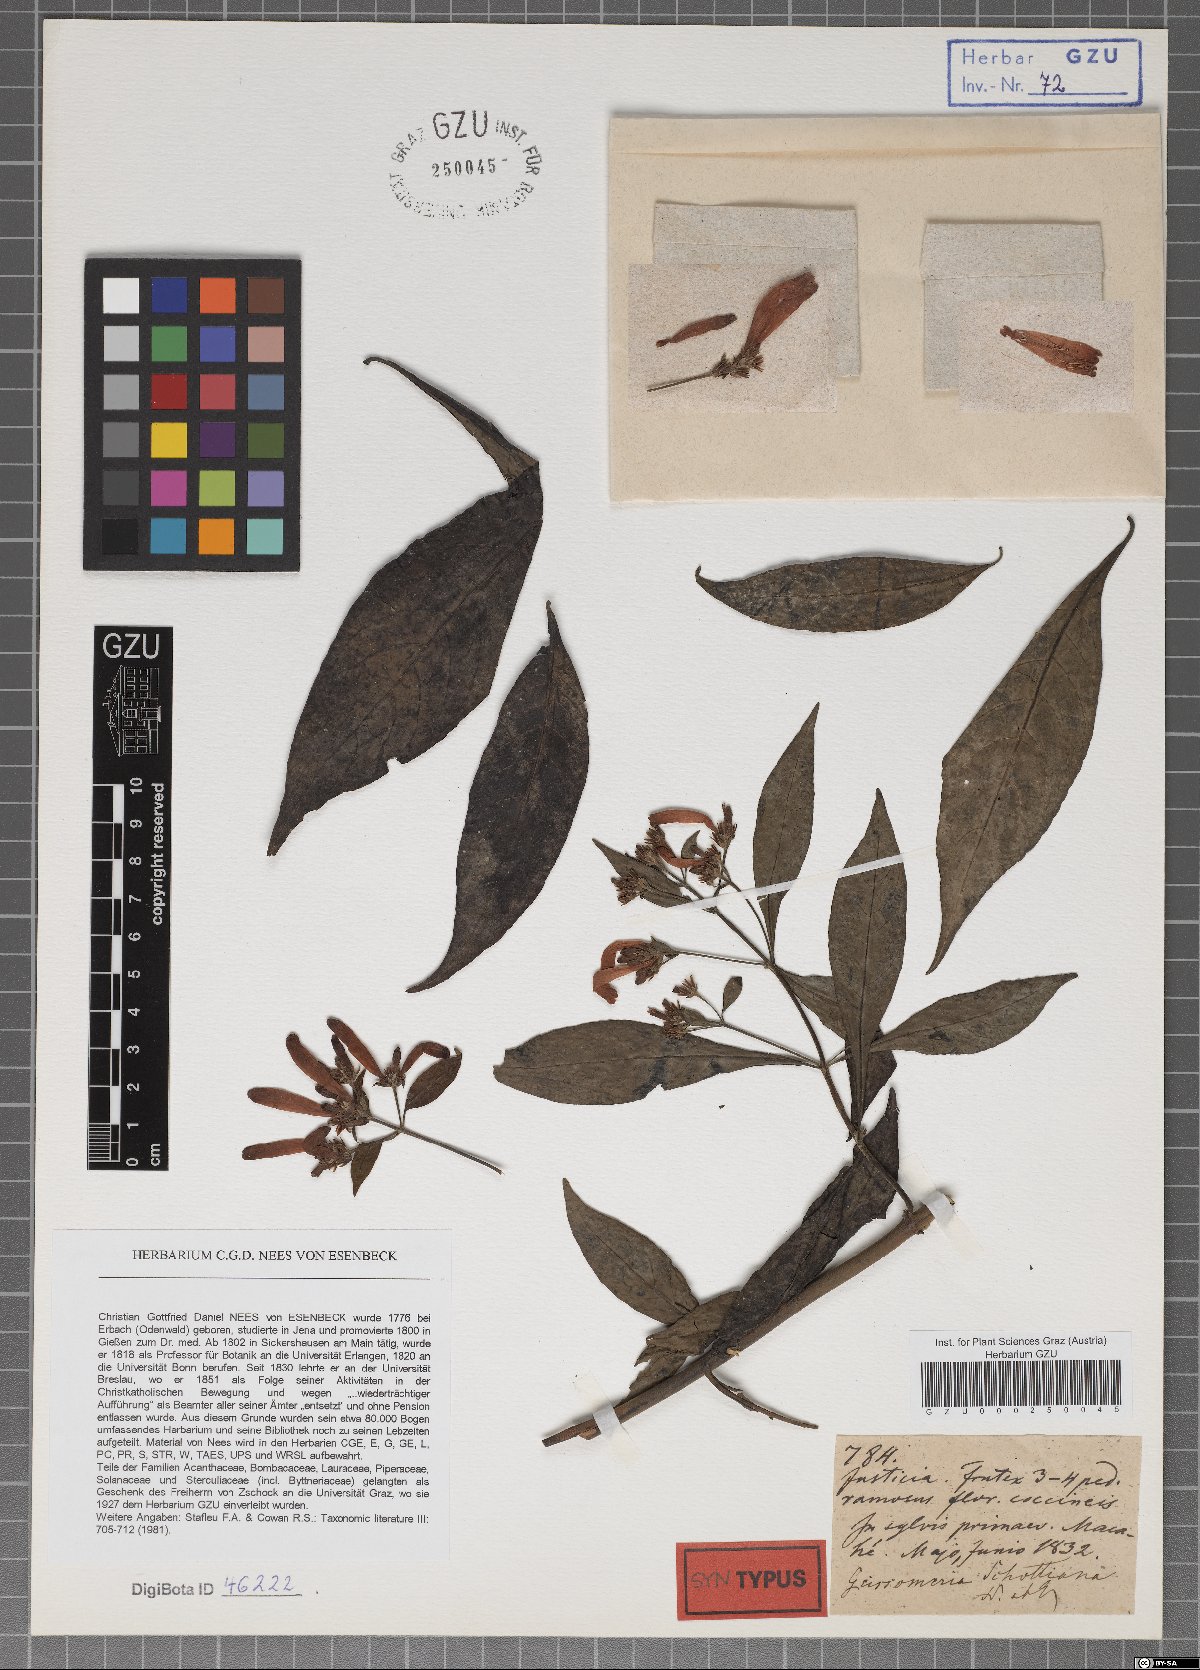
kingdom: Plantae
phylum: Tracheophyta
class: Magnoliopsida
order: Lamiales
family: Acanthaceae
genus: Aphelandra
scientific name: Aphelandra schottiana
